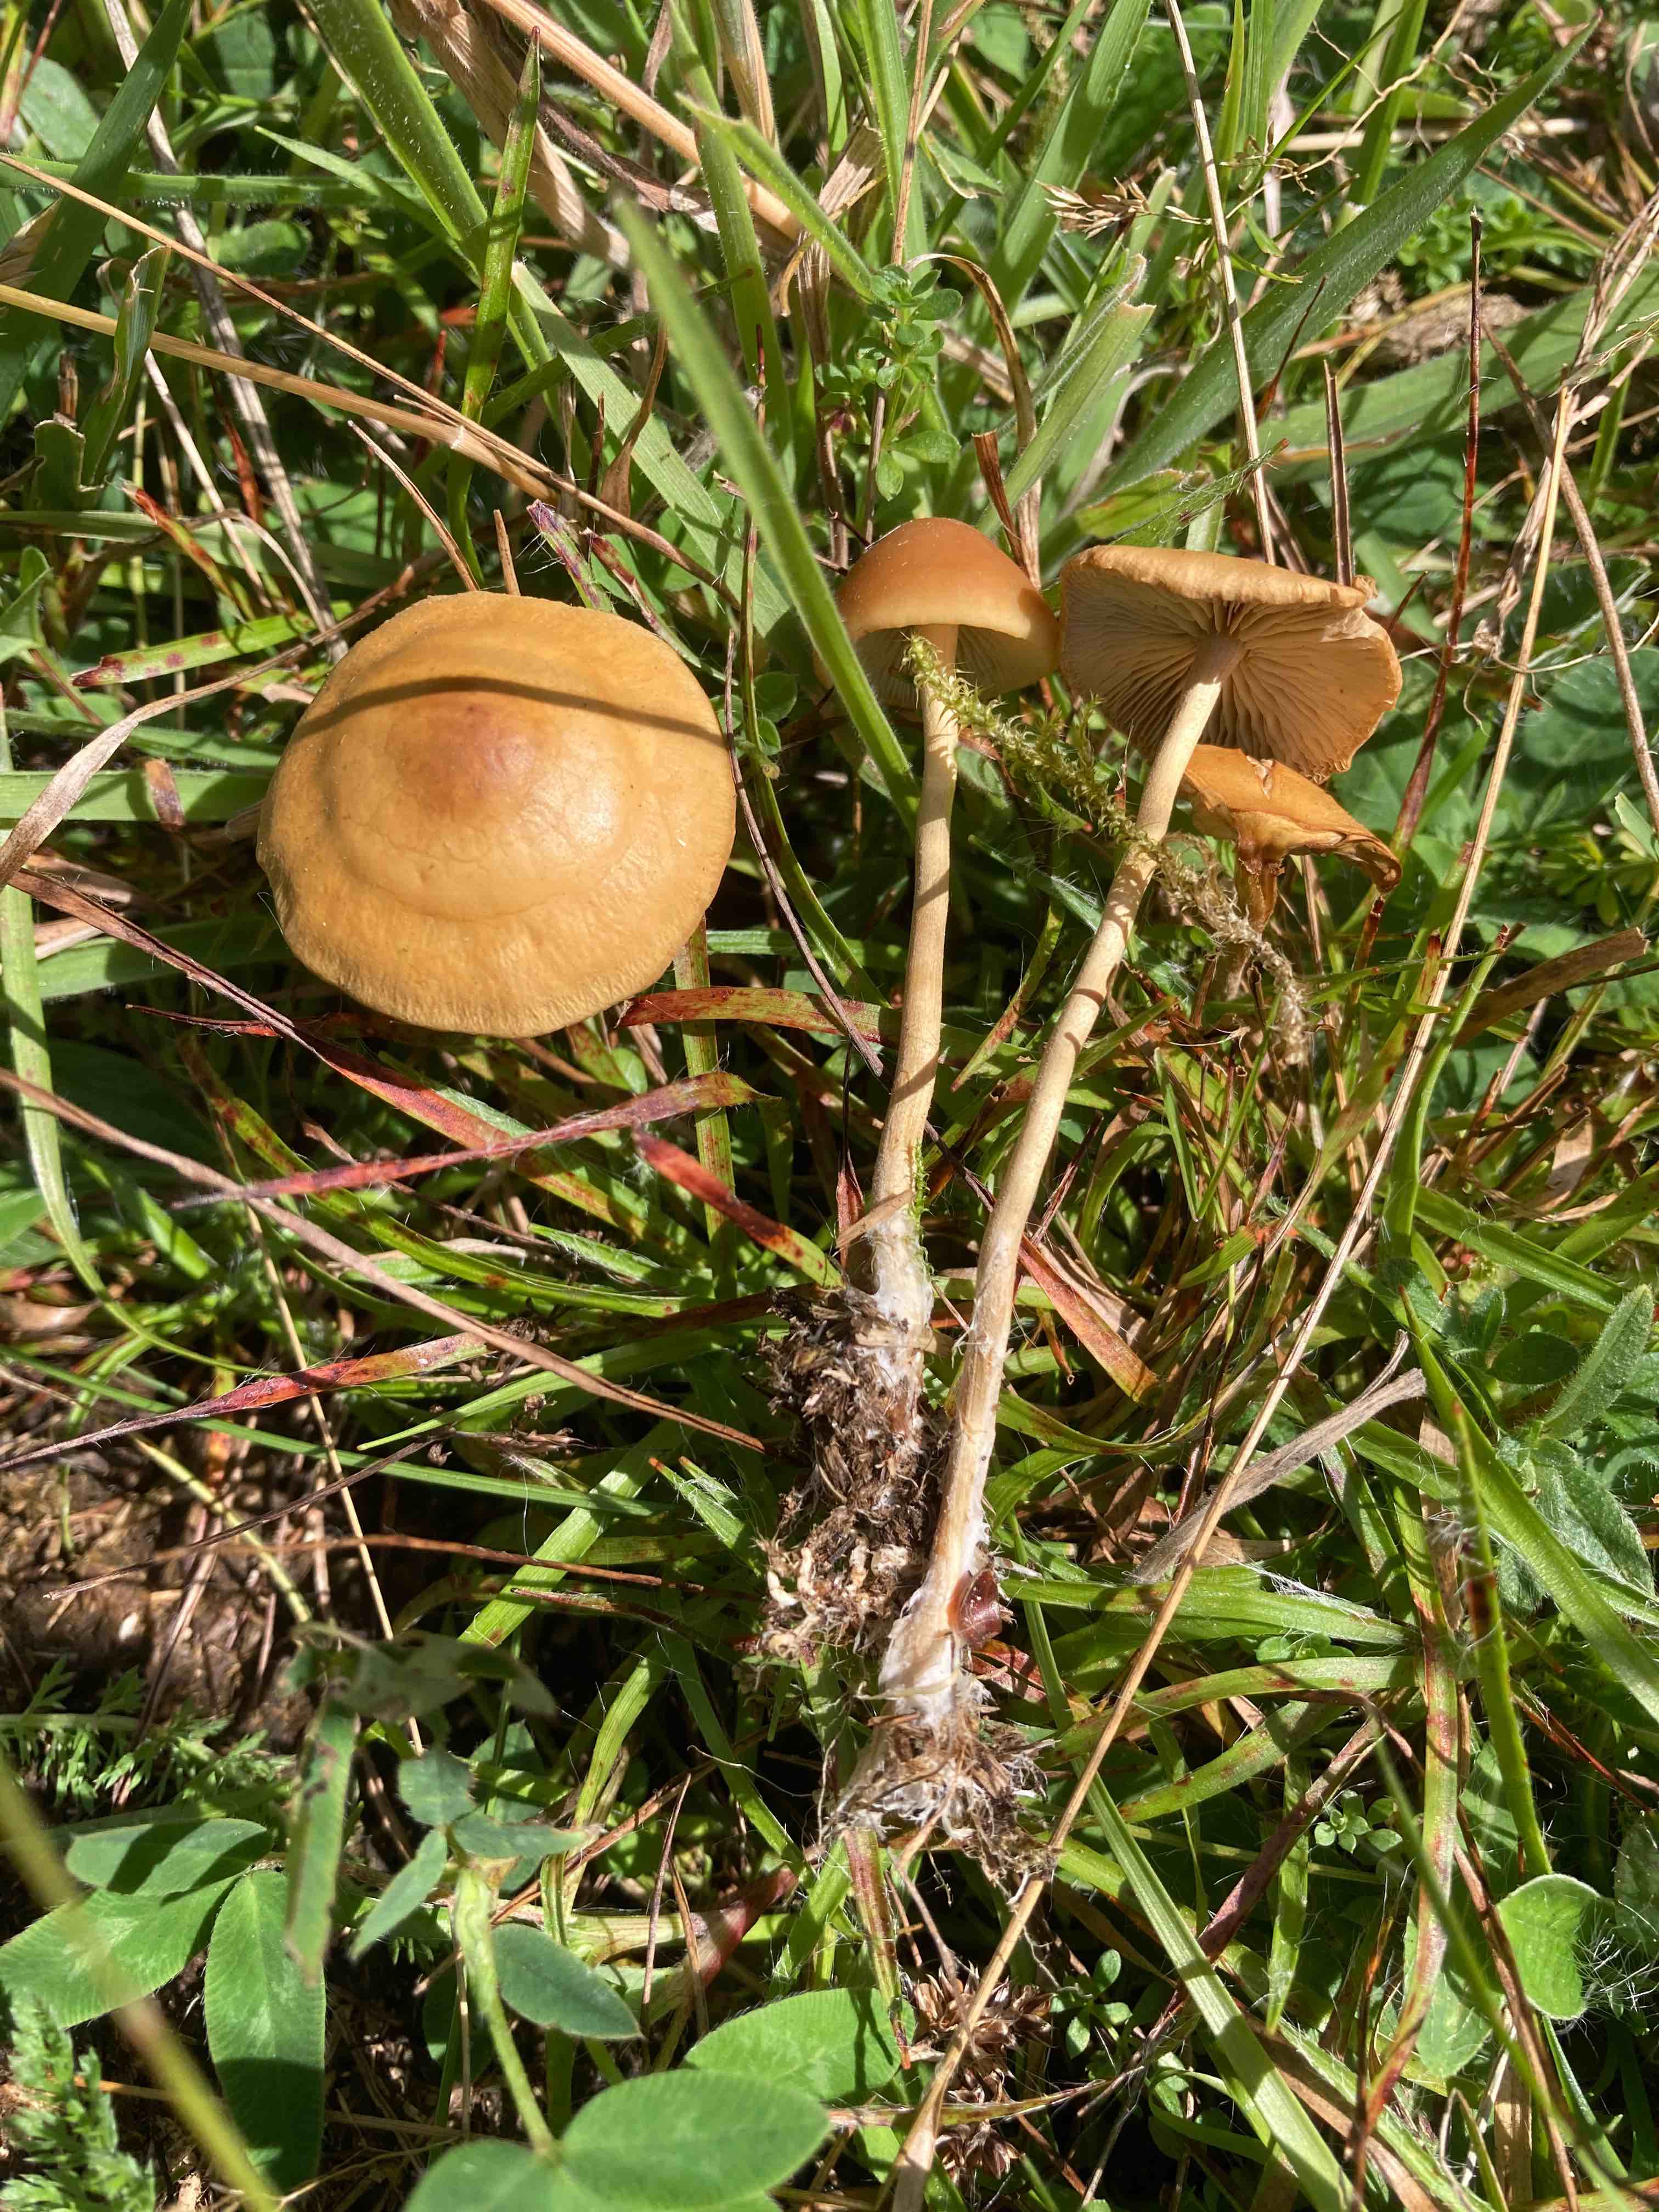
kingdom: Fungi
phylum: Basidiomycota
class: Agaricomycetes
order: Agaricales
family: Strophariaceae
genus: Agrocybe
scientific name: Agrocybe arvalis
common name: rodslående agerhat
